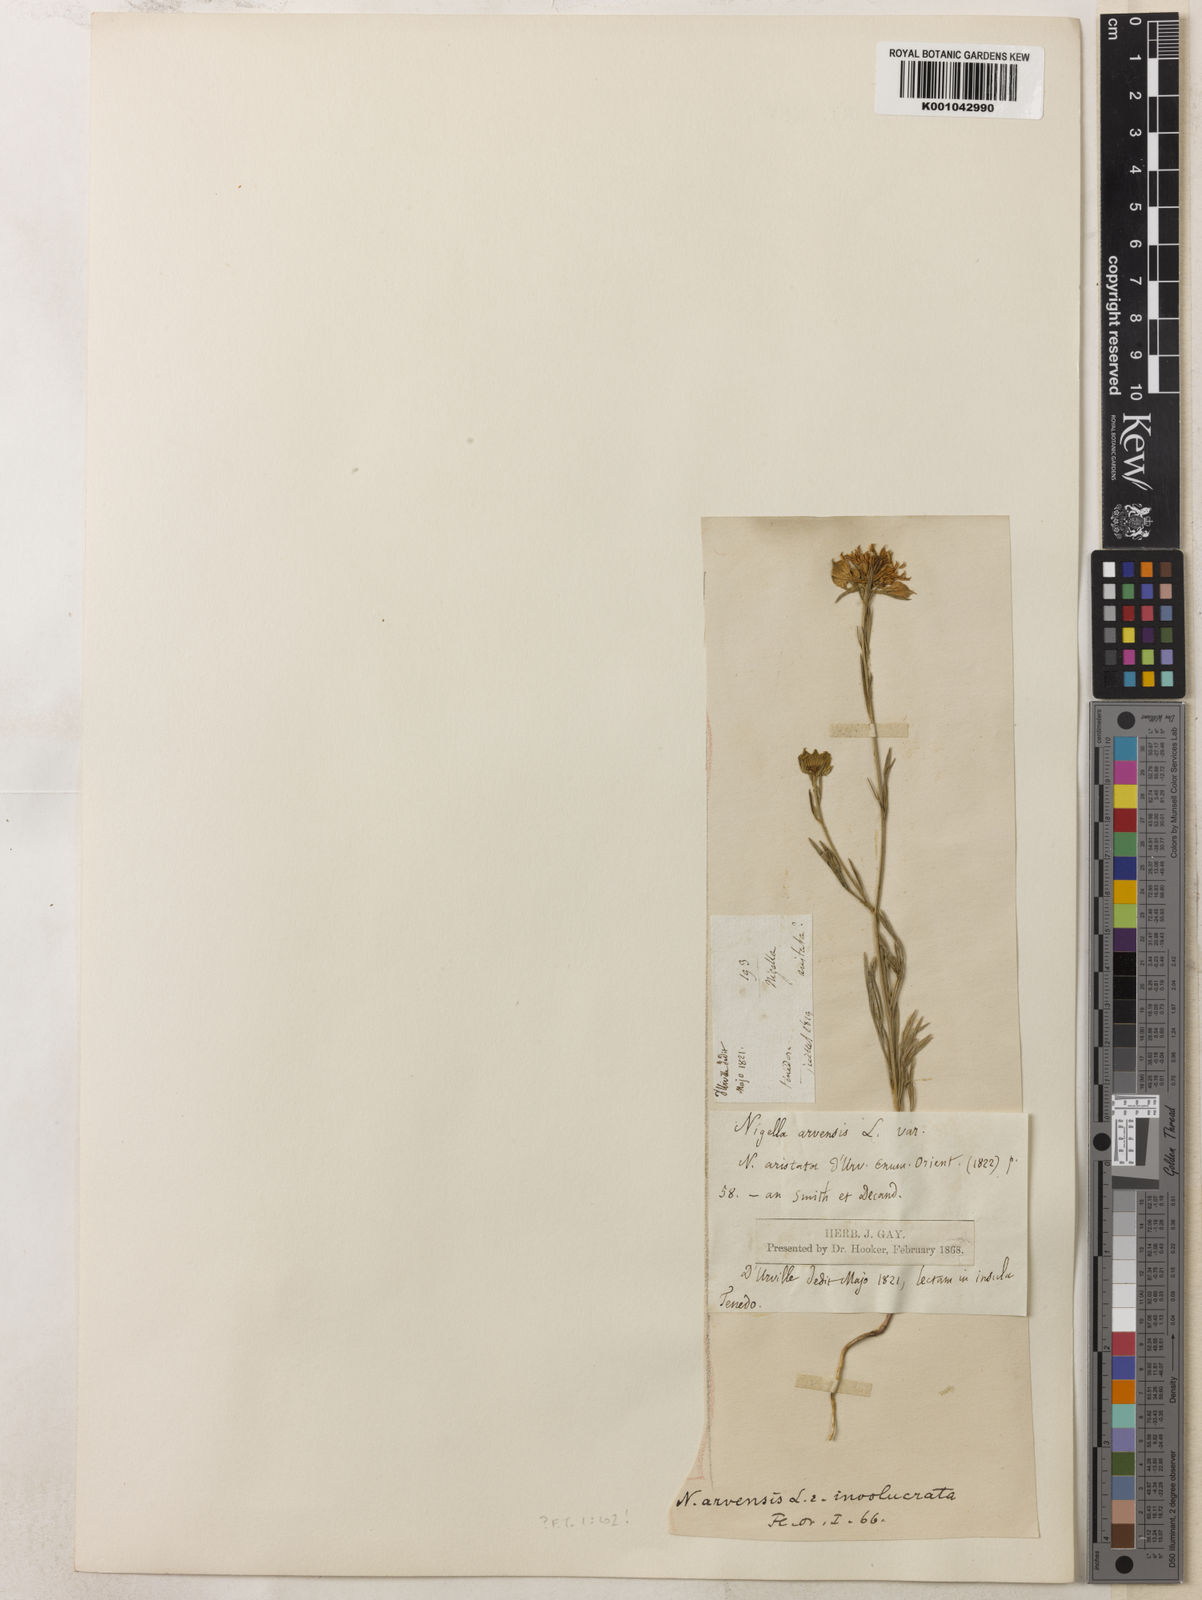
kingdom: Plantae
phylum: Tracheophyta
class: Magnoliopsida
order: Ranunculales
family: Ranunculaceae
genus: Nigella
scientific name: Nigella arvensis
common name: Wild fennel-flower
